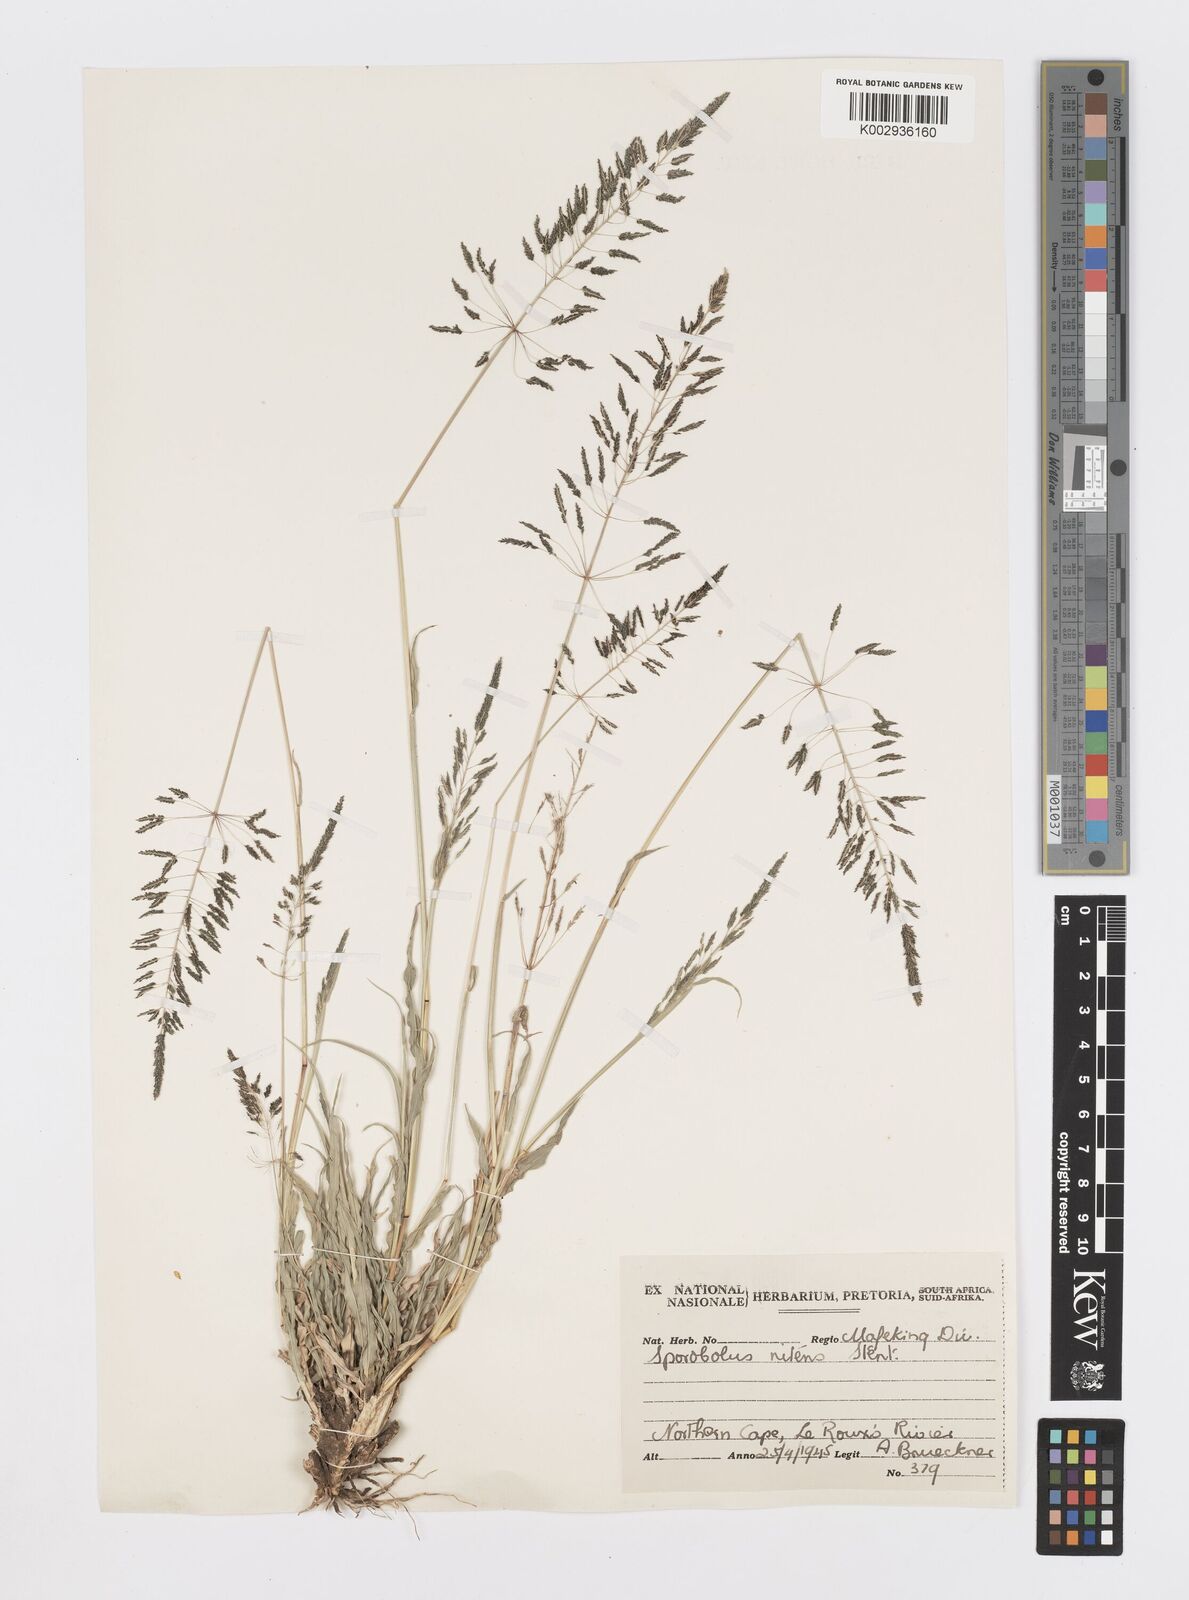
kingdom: Plantae
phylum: Tracheophyta
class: Liliopsida
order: Poales
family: Poaceae
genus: Sporobolus
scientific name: Sporobolus nitens
